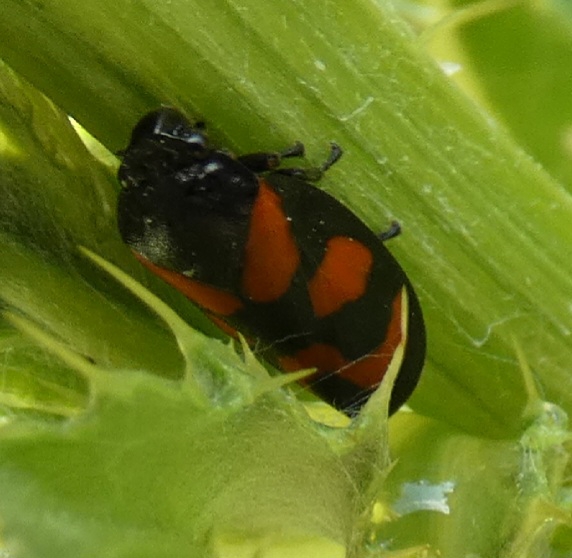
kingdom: Animalia
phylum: Arthropoda
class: Insecta
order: Hemiptera
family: Cercopidae
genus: Cercopis
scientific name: Cercopis vulnerata
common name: Blodcikade
